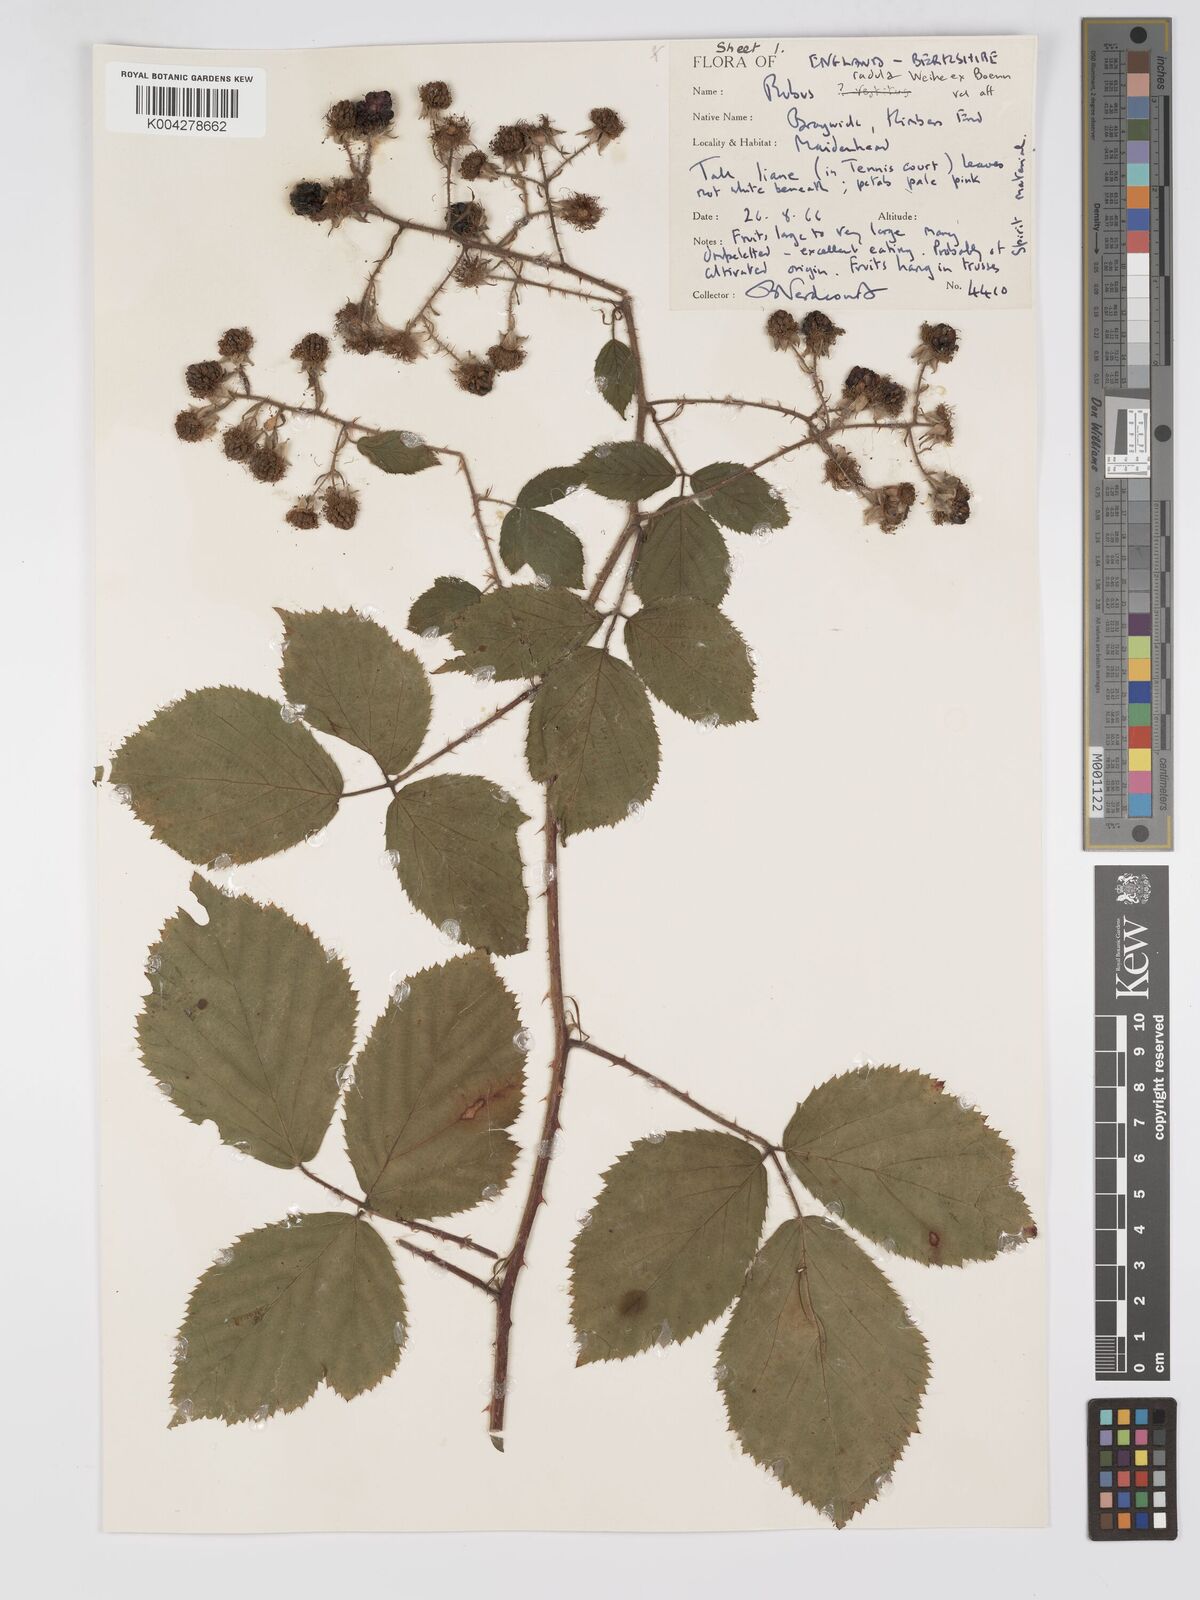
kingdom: Plantae
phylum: Tracheophyta
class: Magnoliopsida
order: Rosales
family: Rosaceae
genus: Rubus
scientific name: Rubus radula
